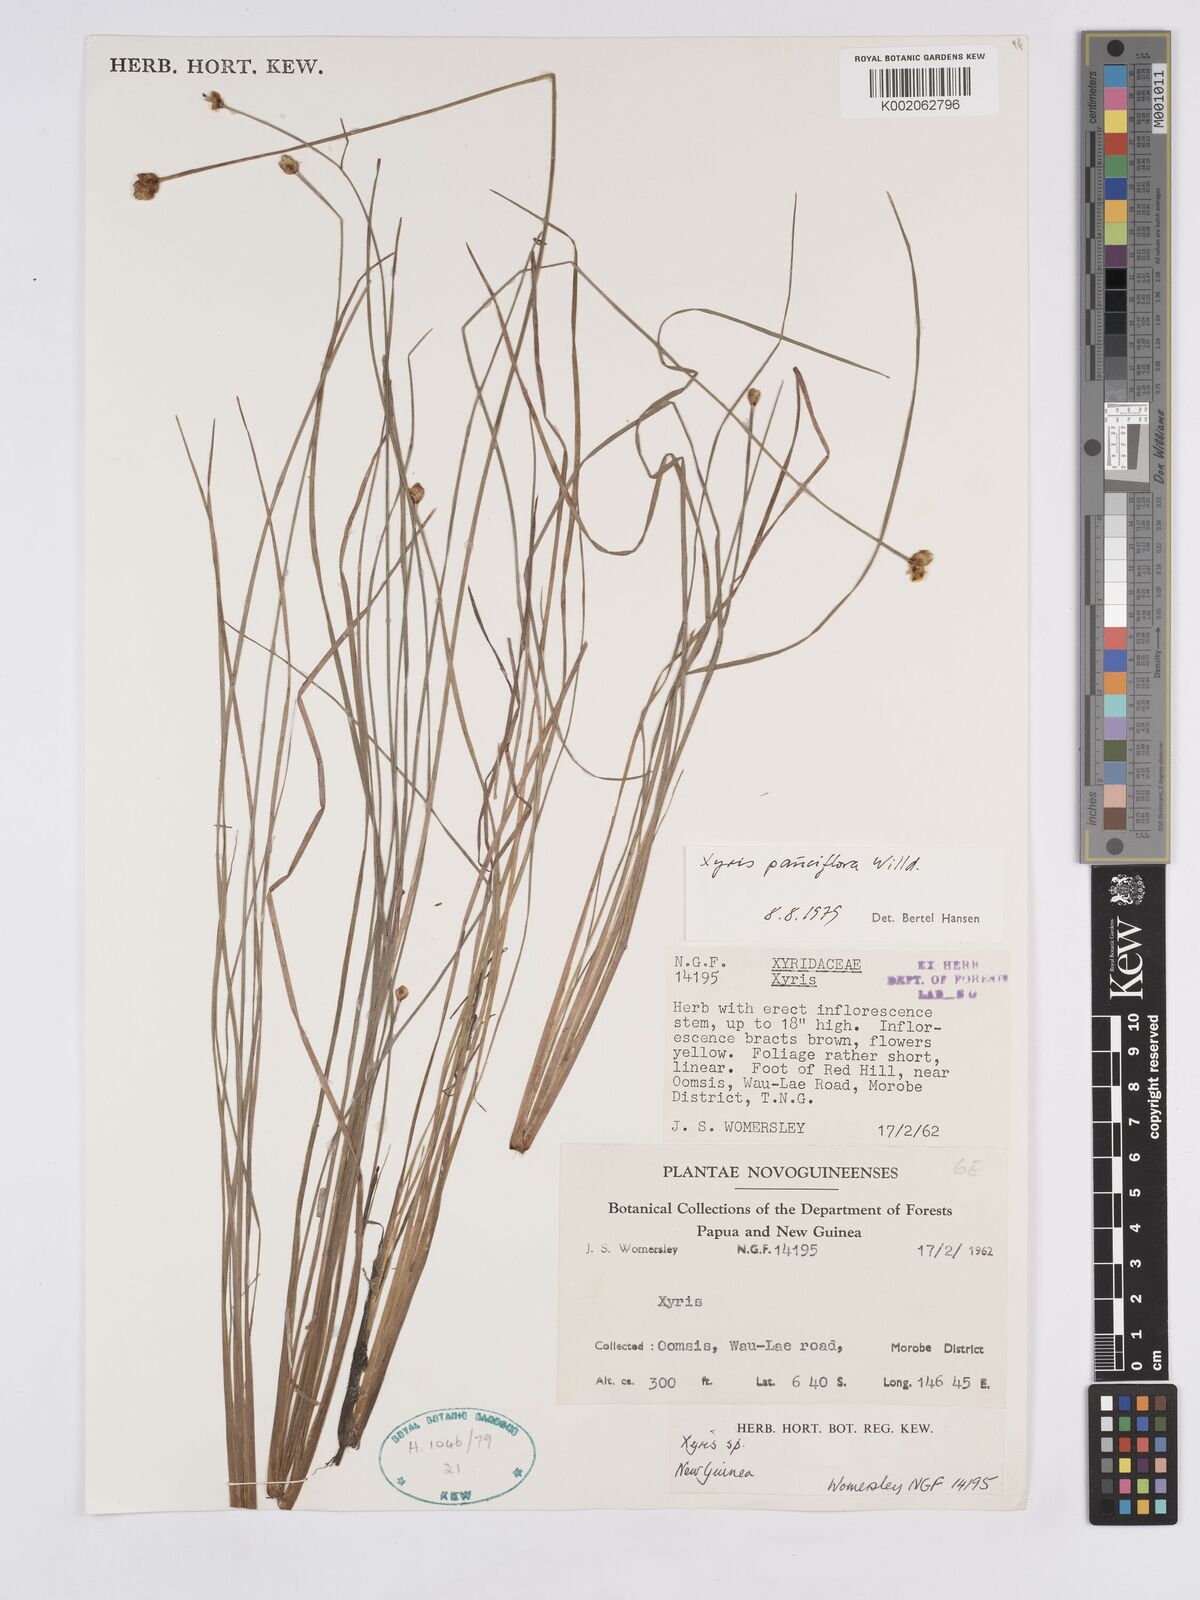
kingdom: Plantae
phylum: Tracheophyta
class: Liliopsida
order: Poales
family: Xyridaceae
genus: Xyris
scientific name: Xyris pauciflora
